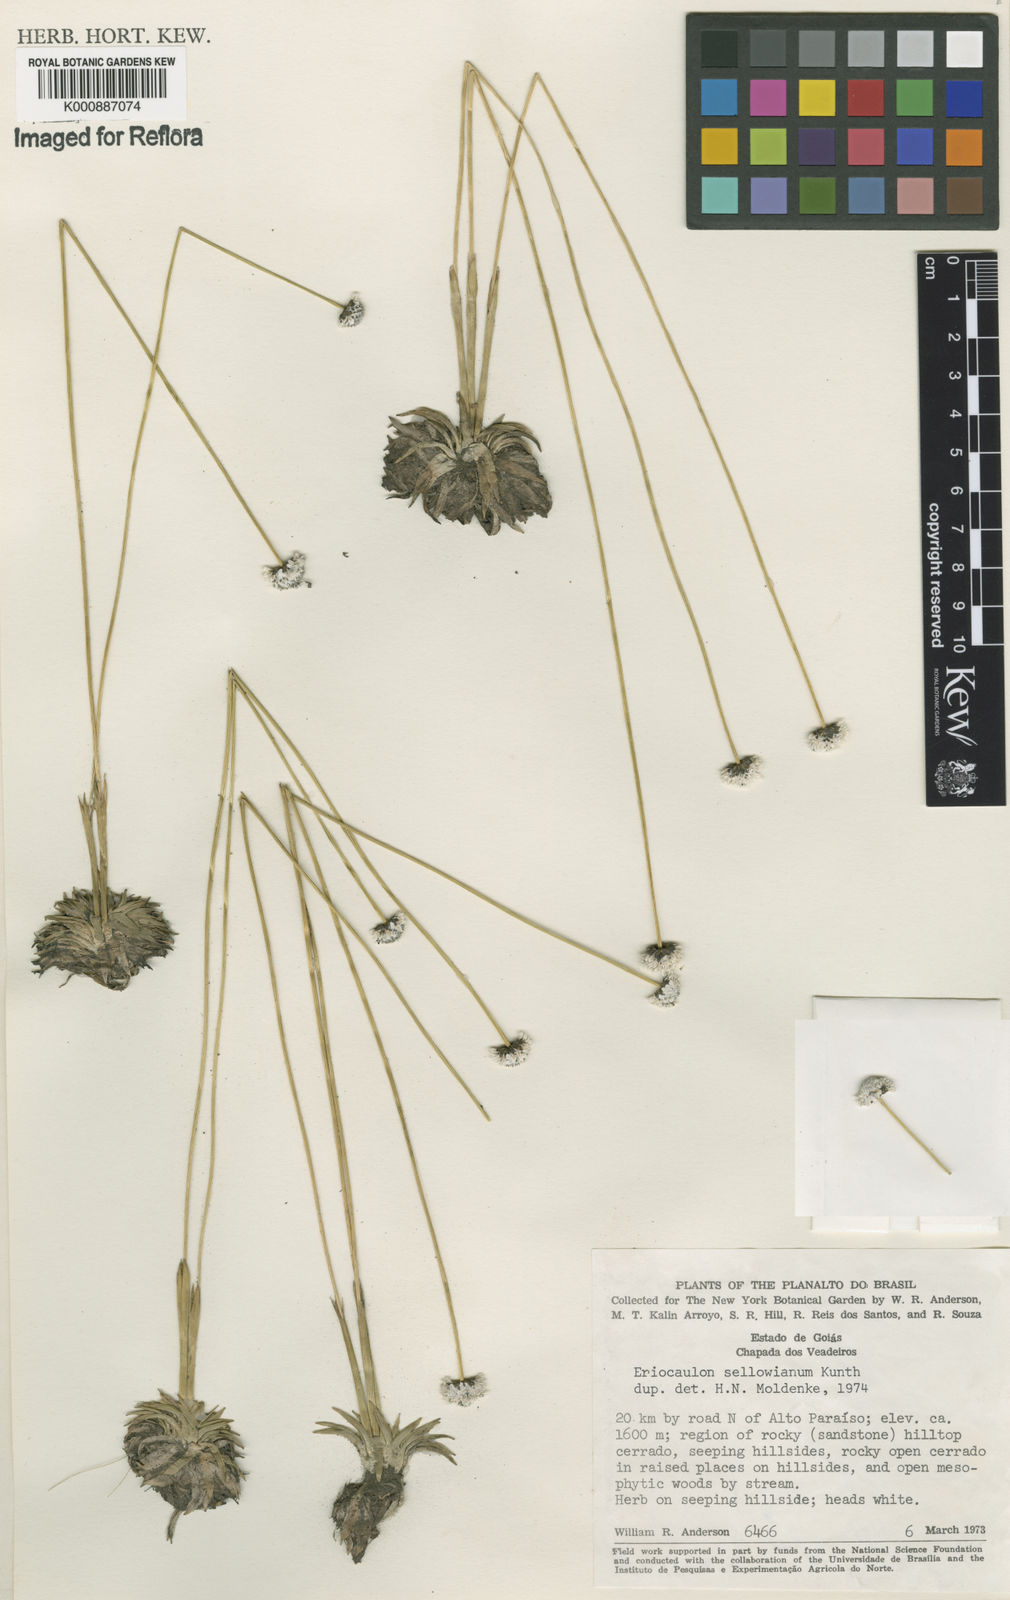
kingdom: Plantae
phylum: Tracheophyta
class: Liliopsida
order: Poales
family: Eriocaulaceae
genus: Eriocaulon
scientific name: Eriocaulon sellowianum
